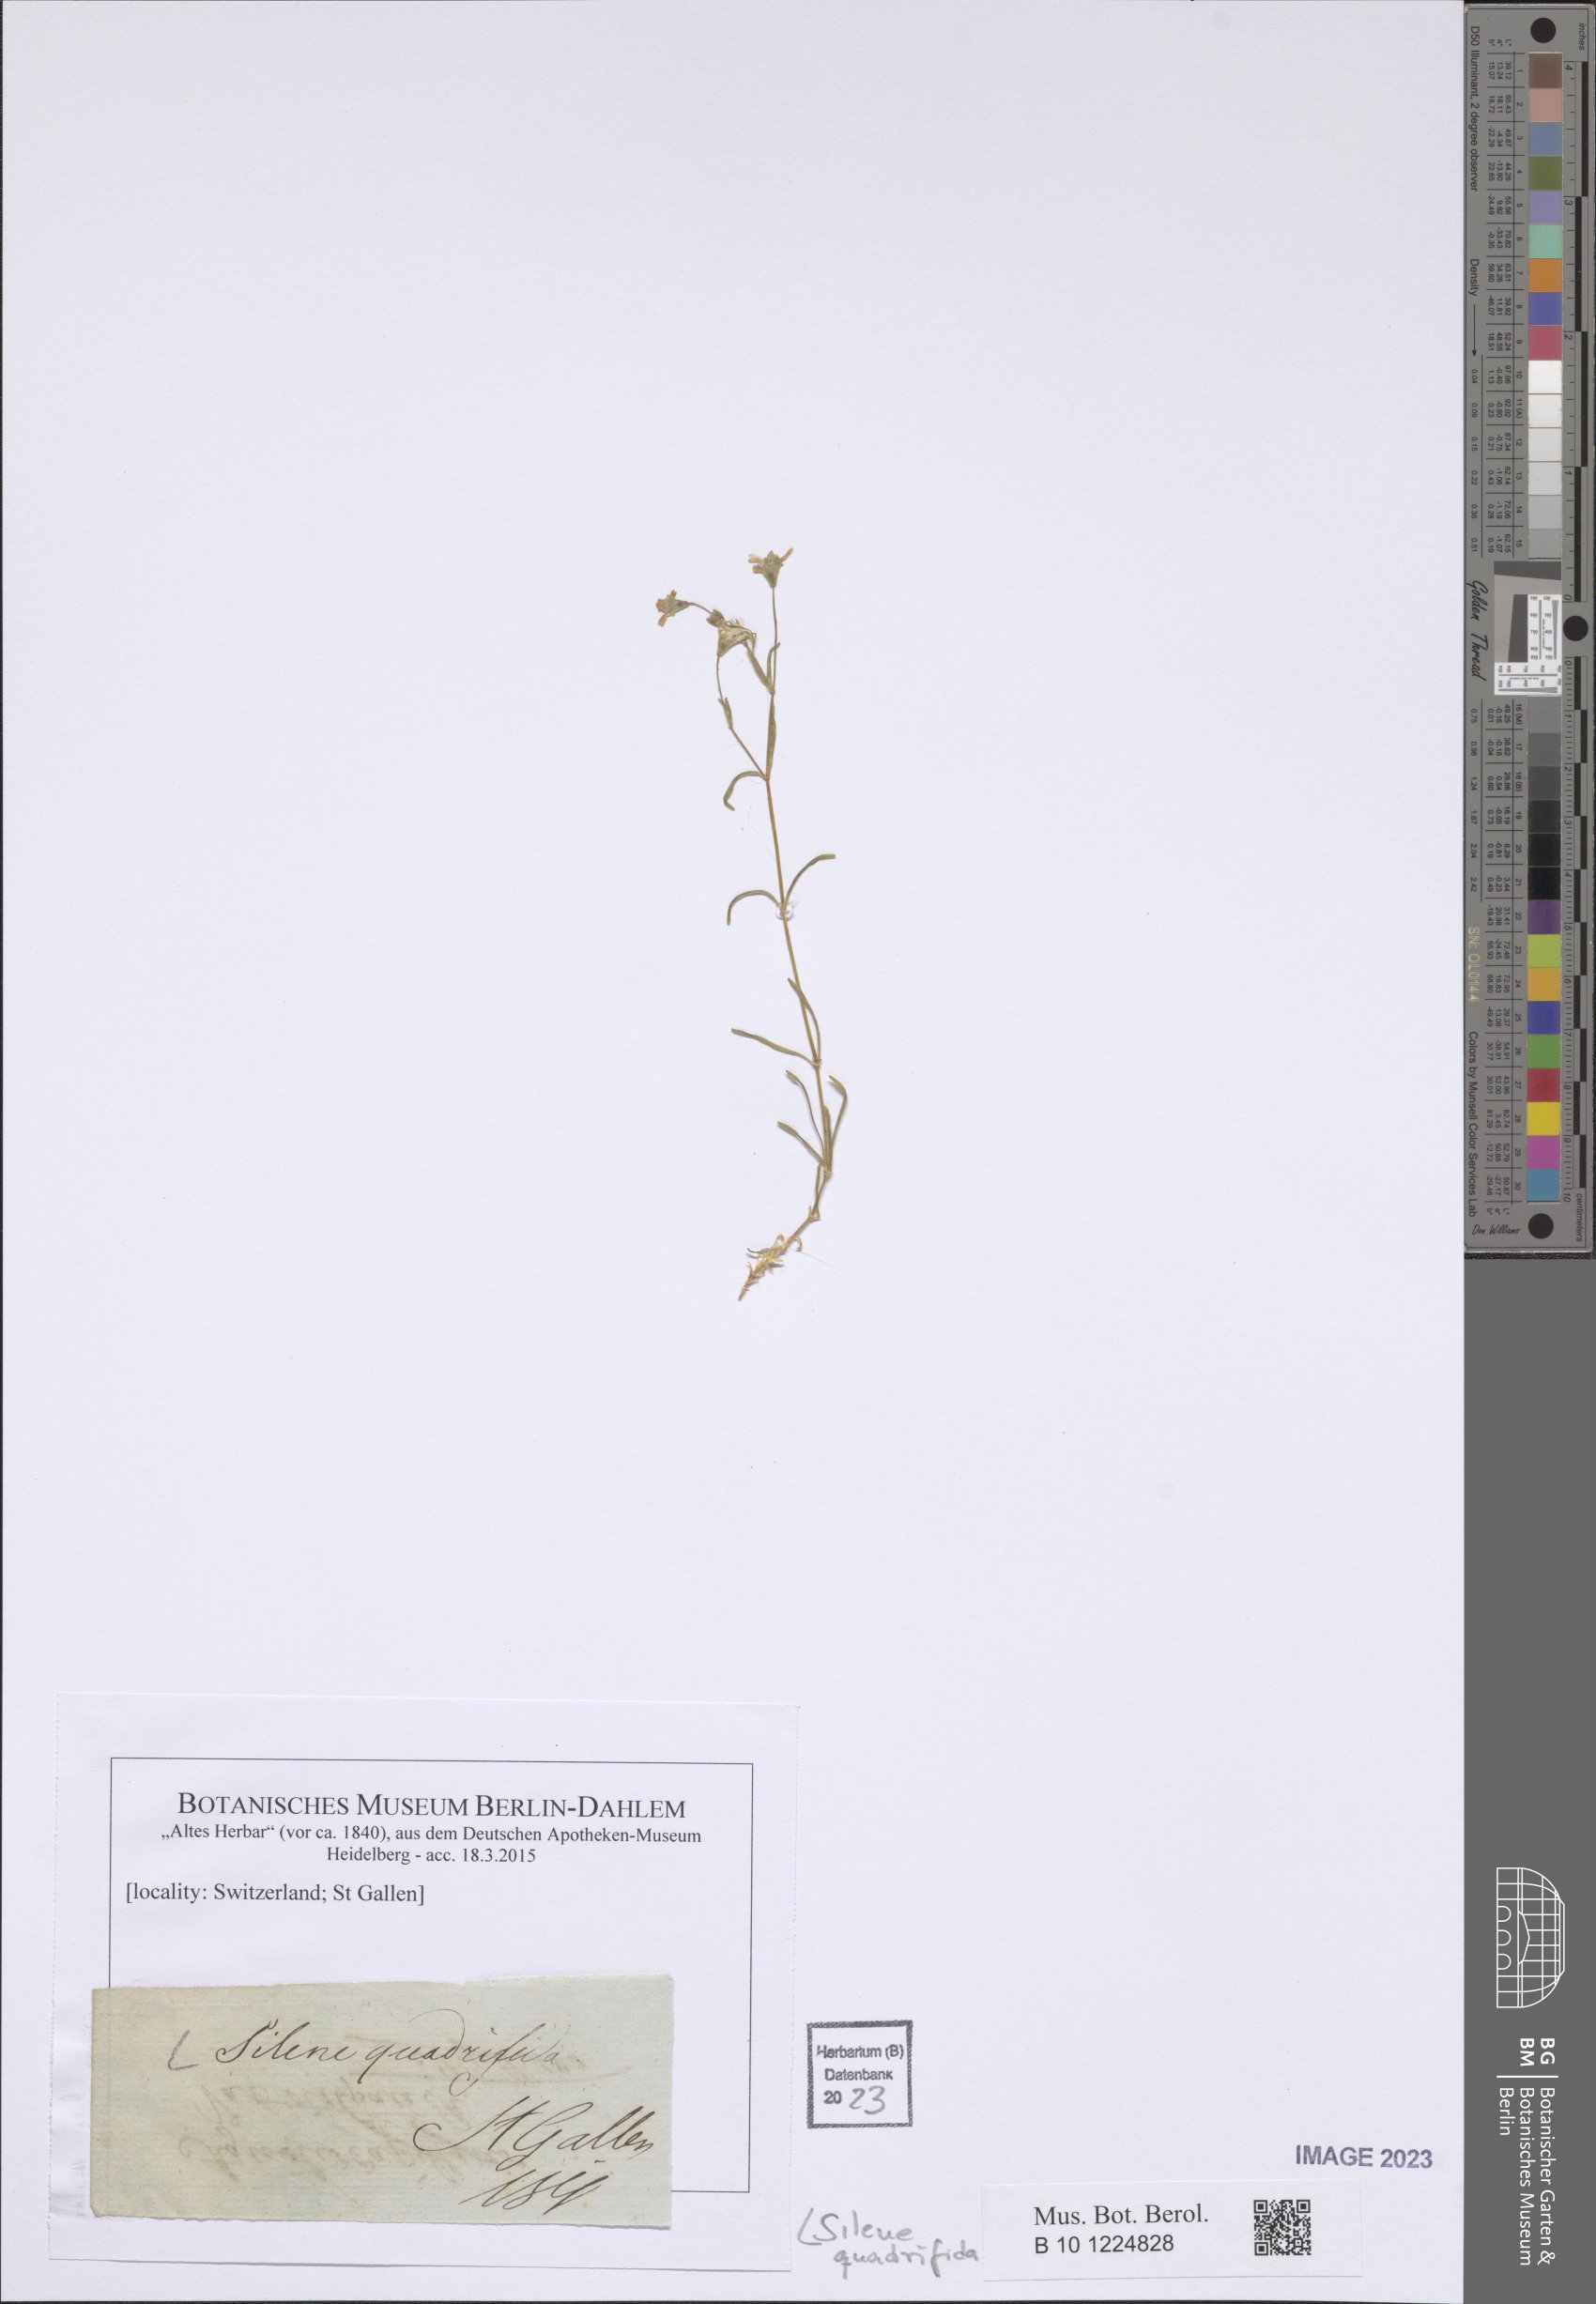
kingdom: Plantae
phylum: Tracheophyta
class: Magnoliopsida
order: Caryophyllales
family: Caryophyllaceae
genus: Heliosperma
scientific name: Heliosperma alpestre
